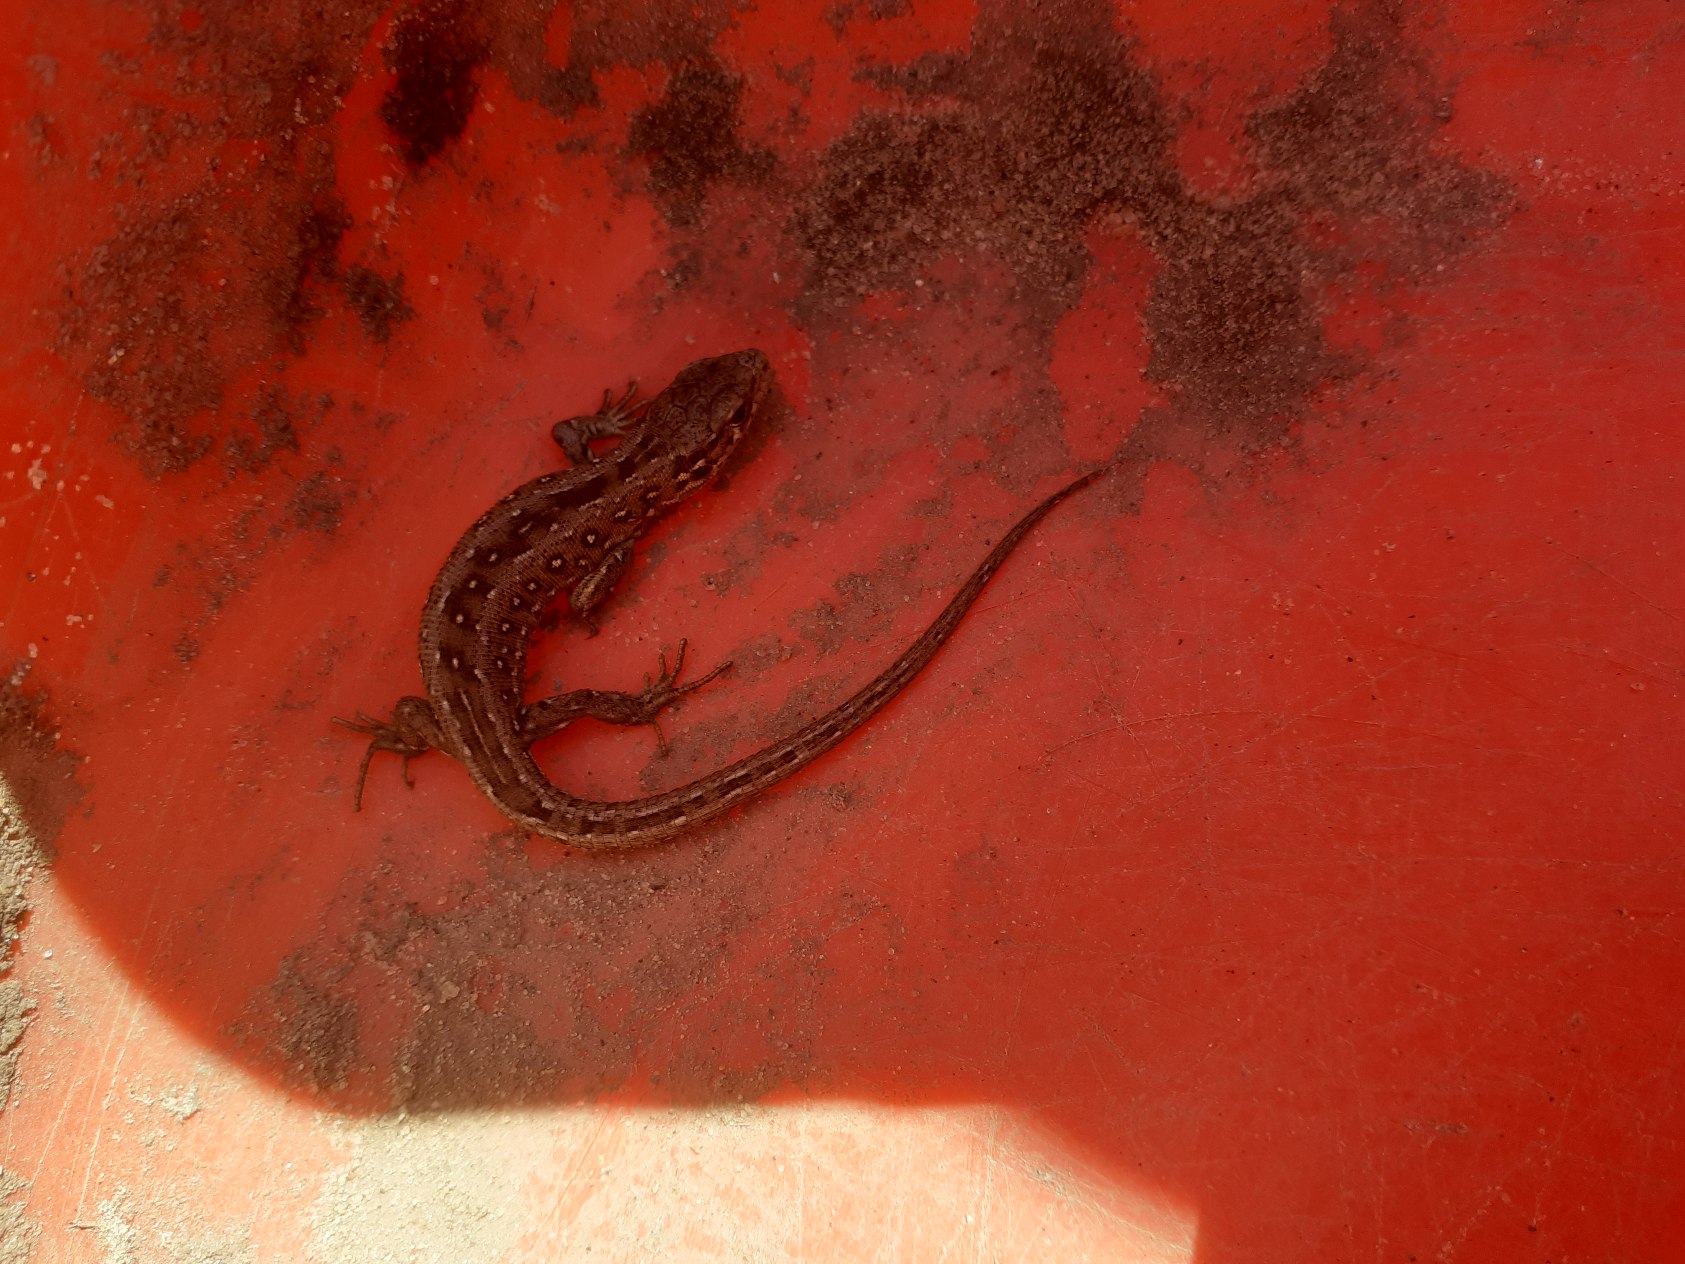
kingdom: Animalia
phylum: Chordata
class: Squamata
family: Lacertidae
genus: Lacerta
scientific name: Lacerta agilis
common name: Markfirben
